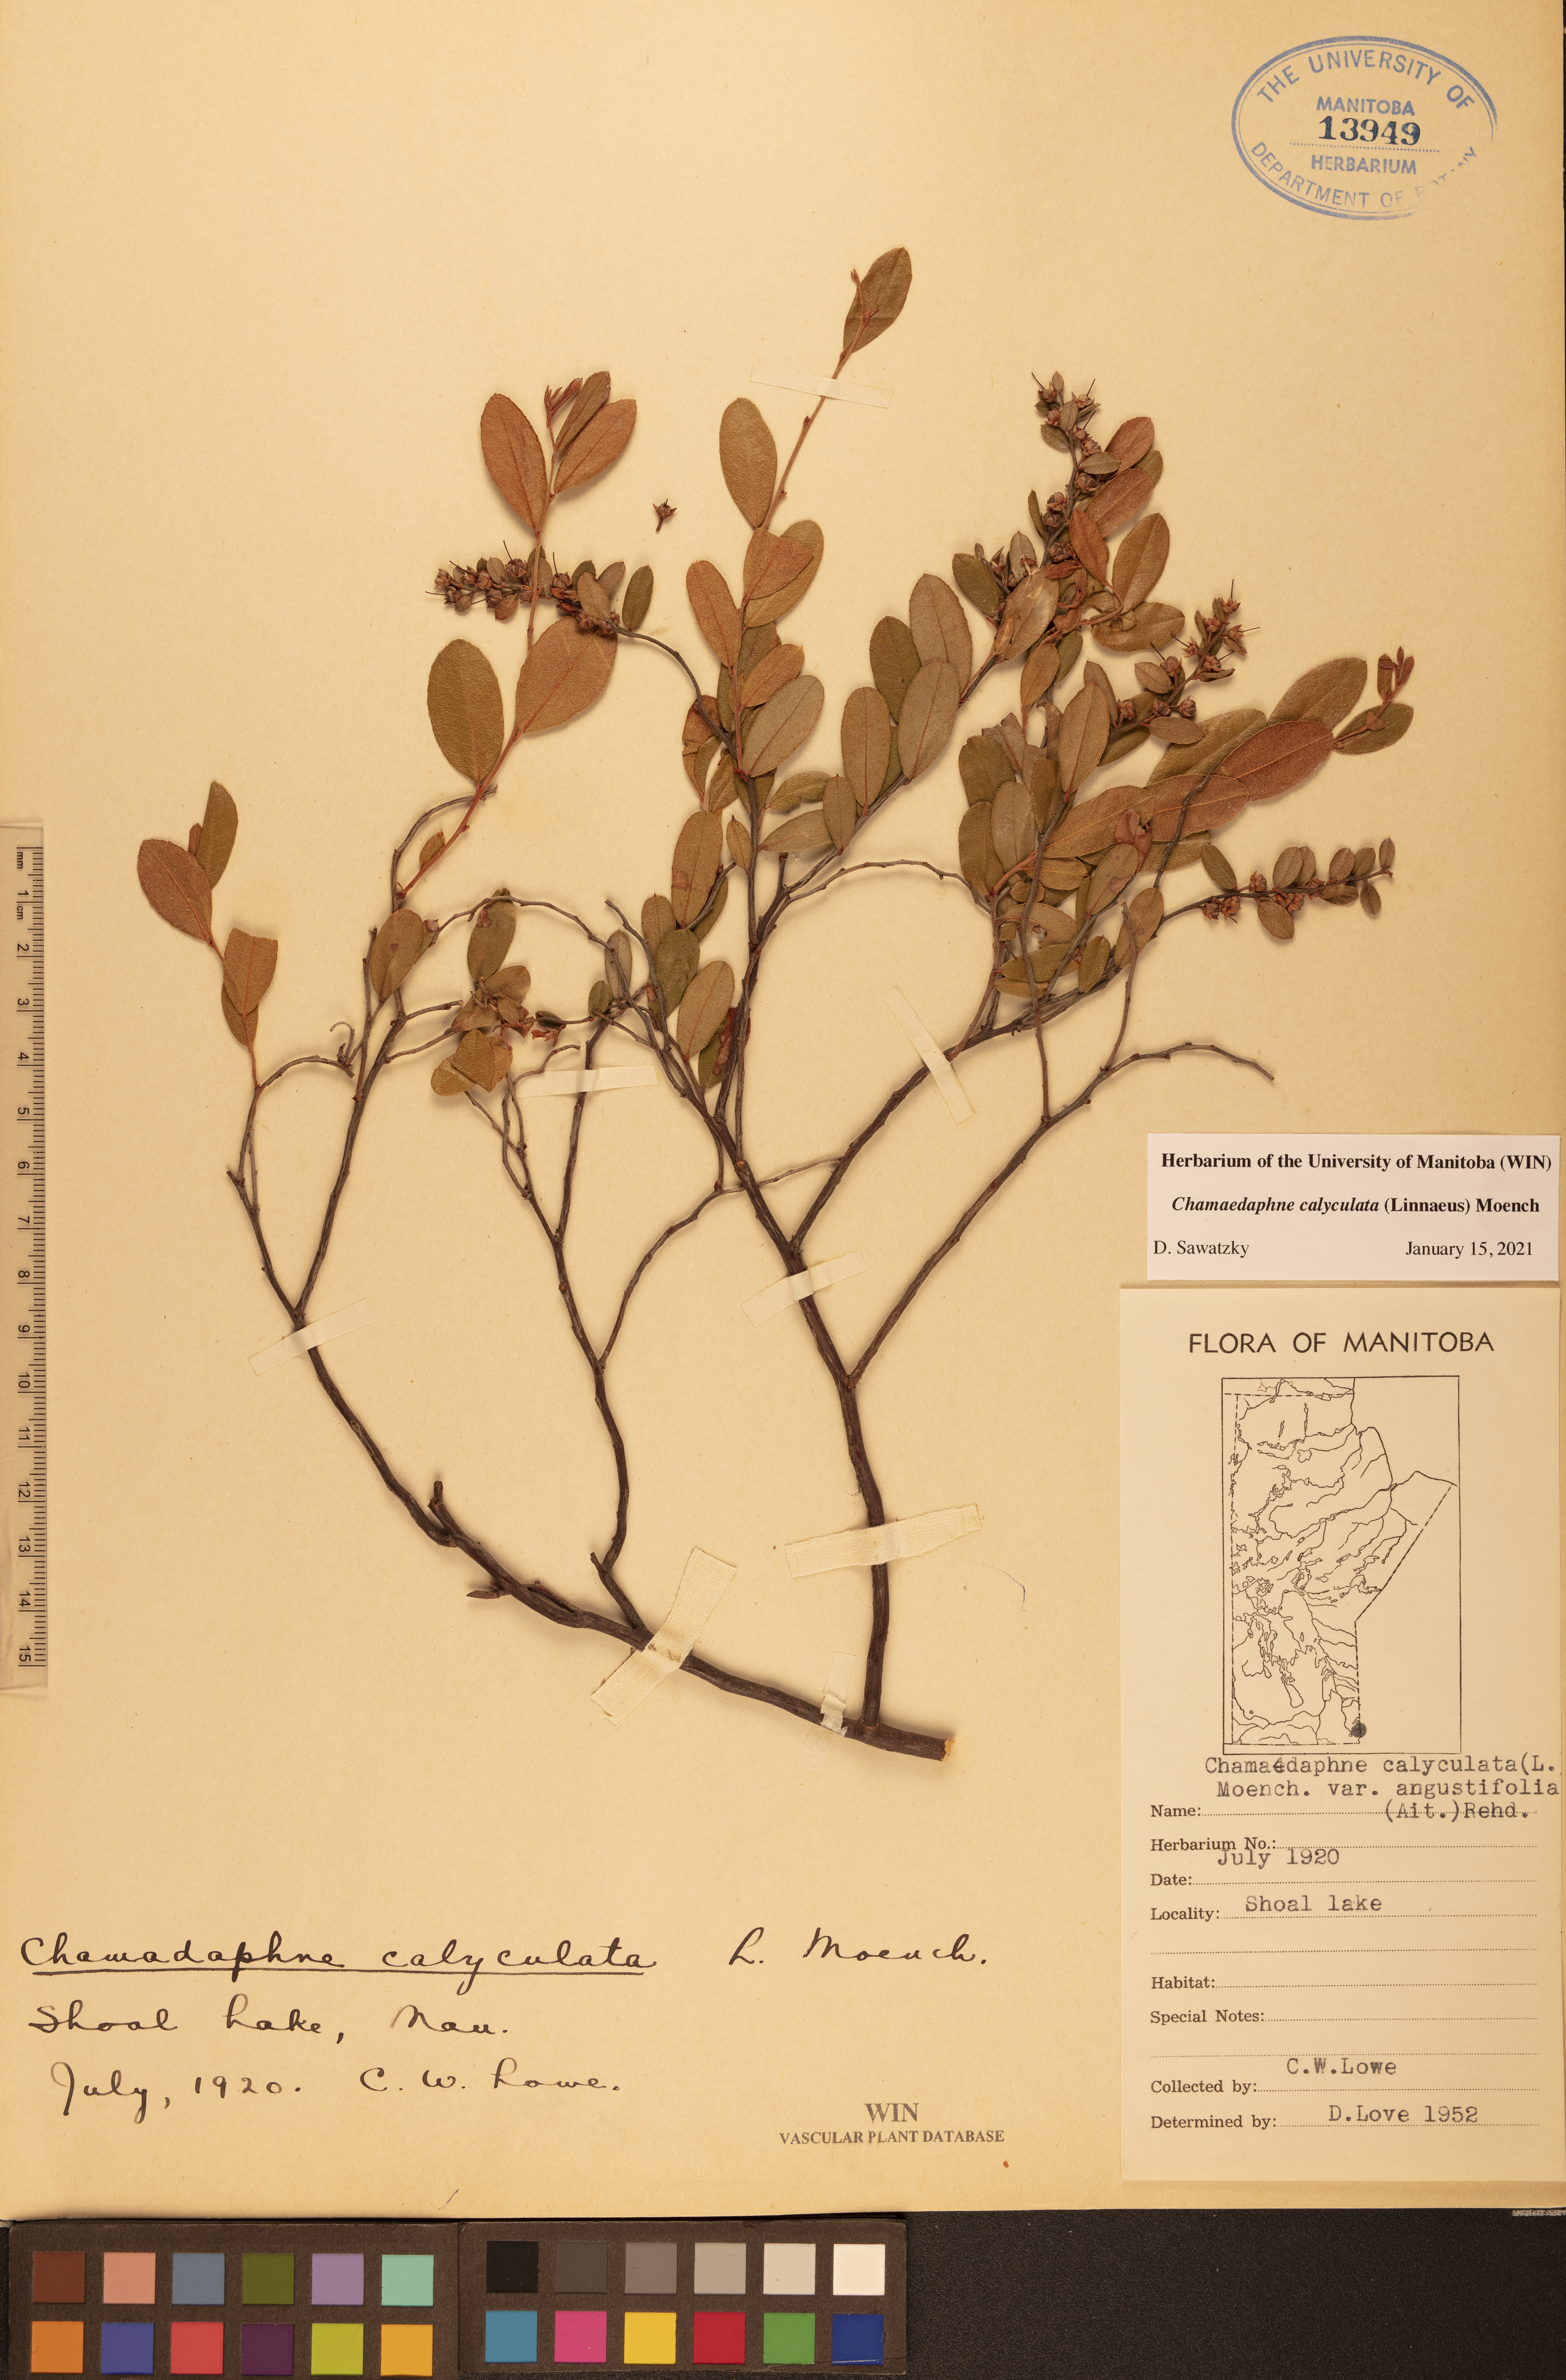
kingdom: Plantae
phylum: Tracheophyta
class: Magnoliopsida
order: Ericales
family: Ericaceae
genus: Chamaedaphne
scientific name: Chamaedaphne calyculata
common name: Leatherleaf
